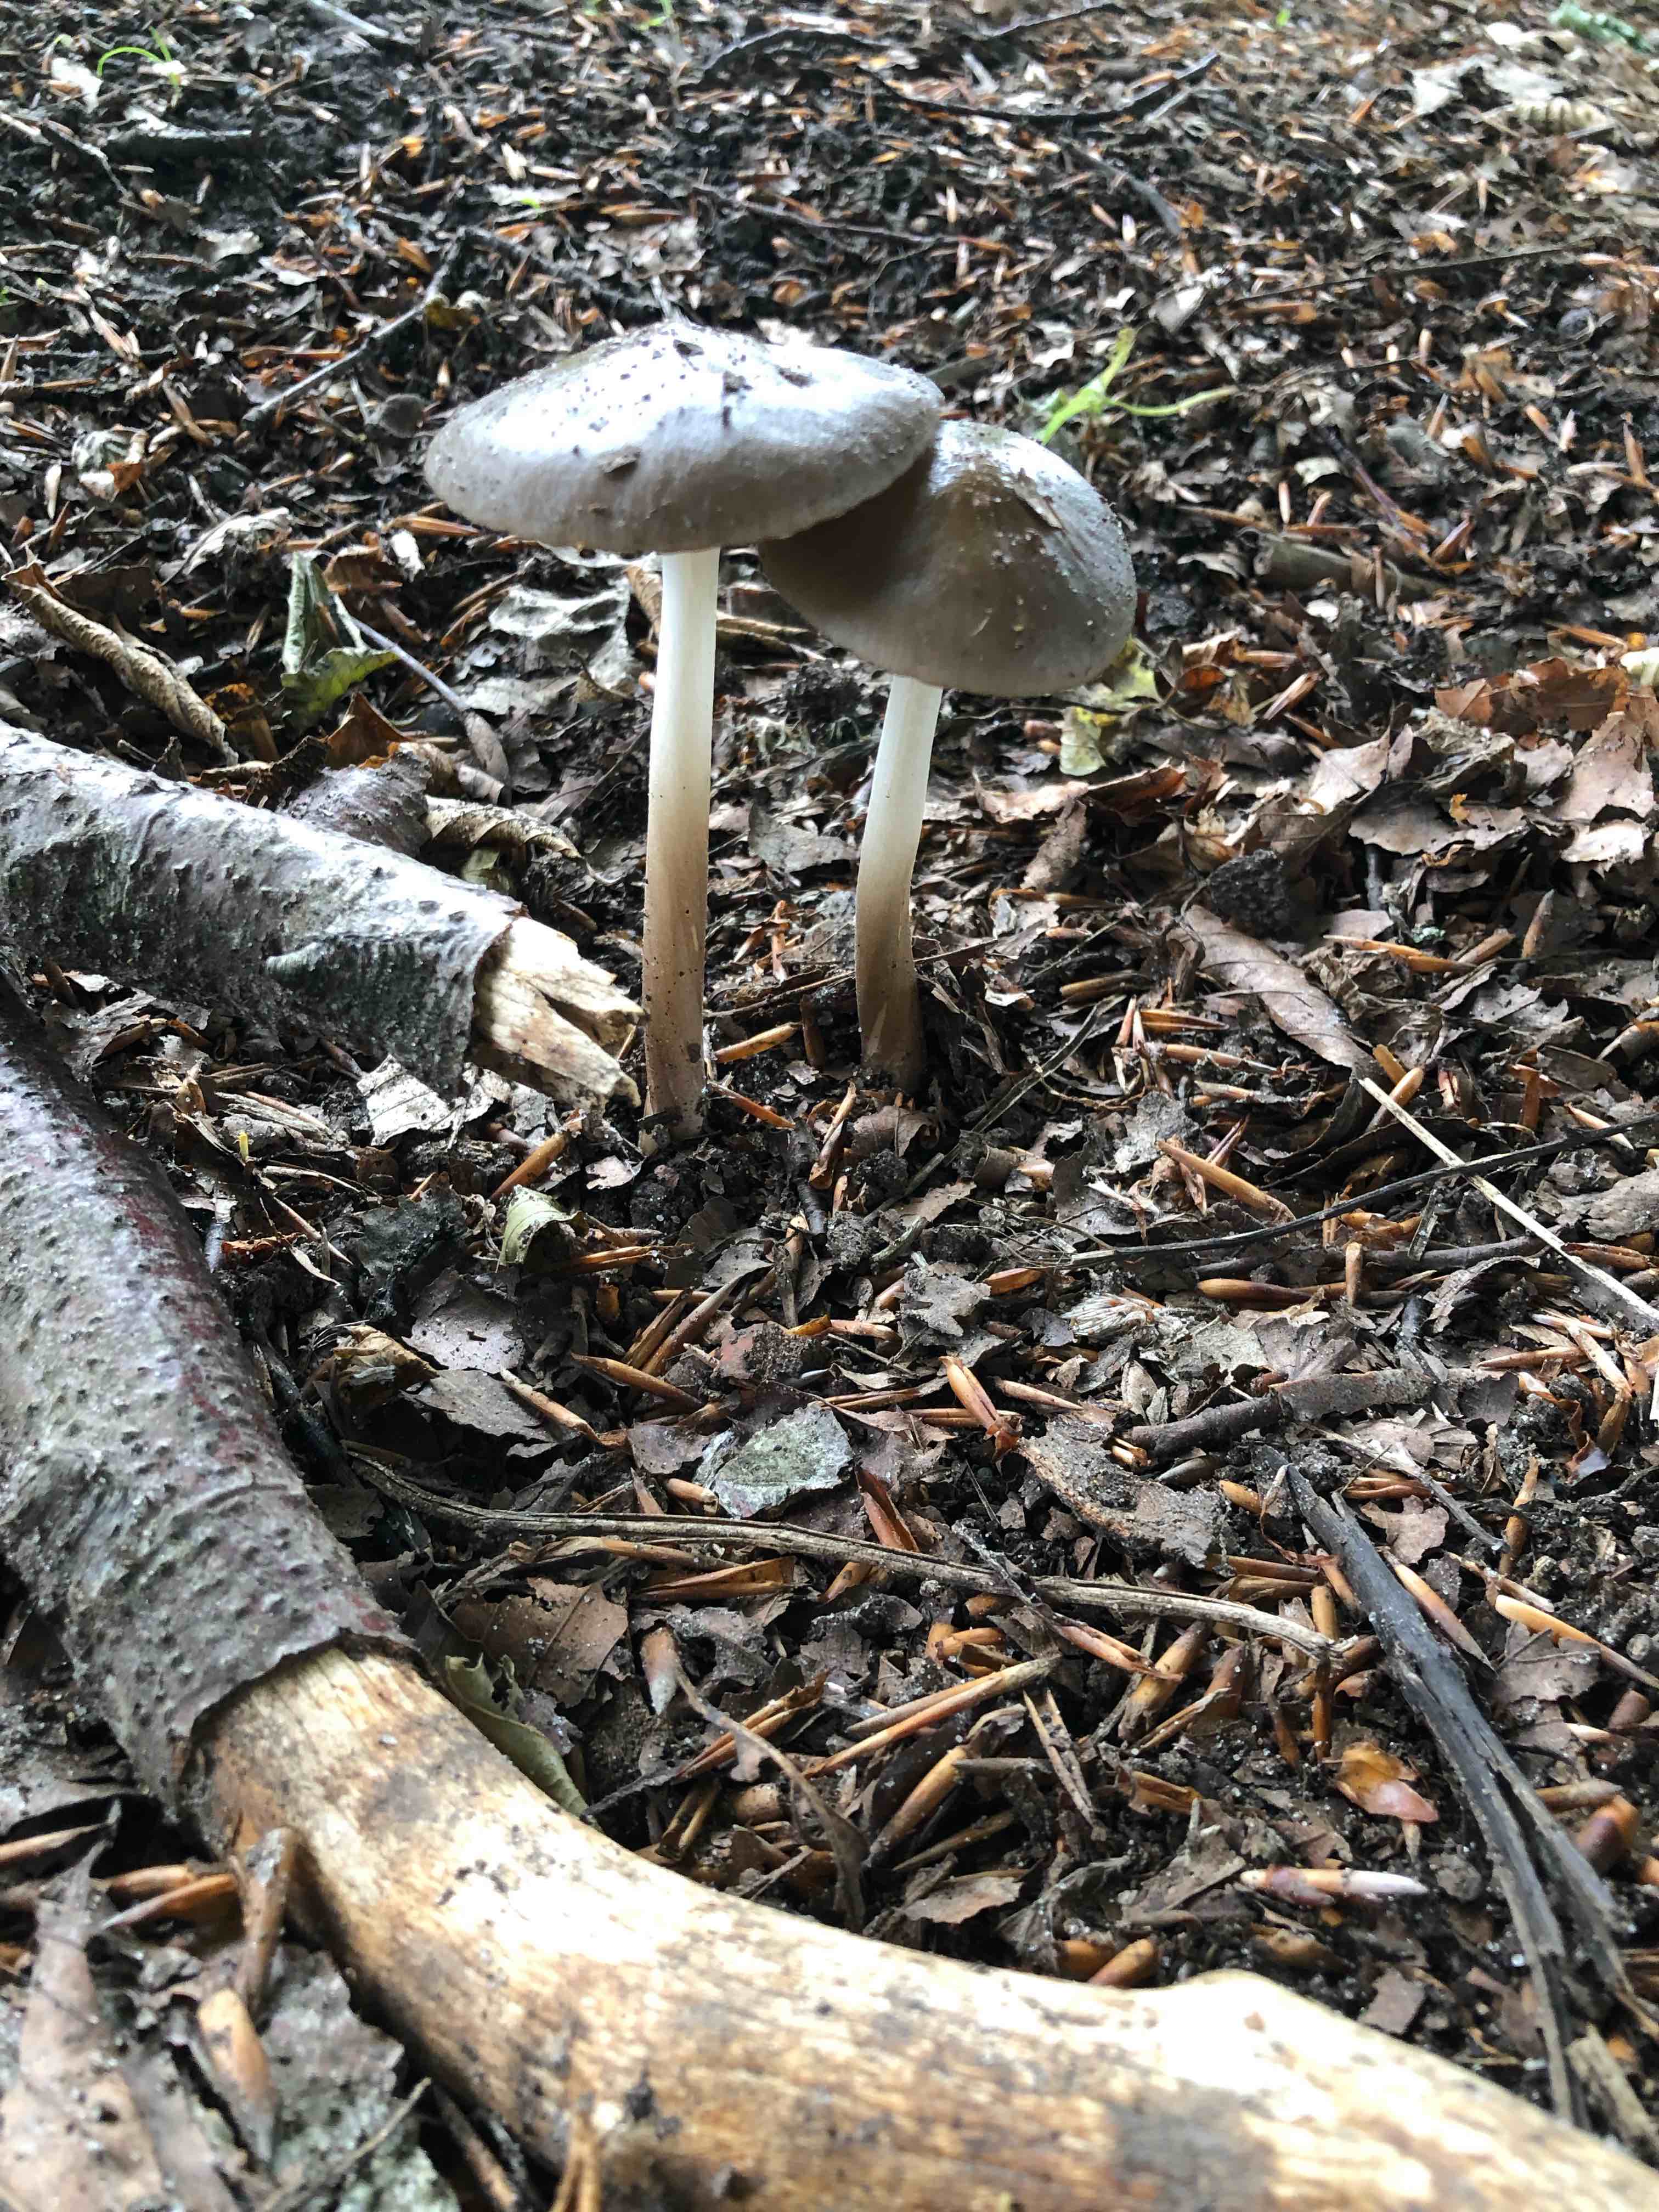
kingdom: Fungi
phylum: Basidiomycota
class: Agaricomycetes
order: Agaricales
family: Physalacriaceae
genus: Hymenopellis
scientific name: Hymenopellis radicata
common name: almindelig pælerodshat
